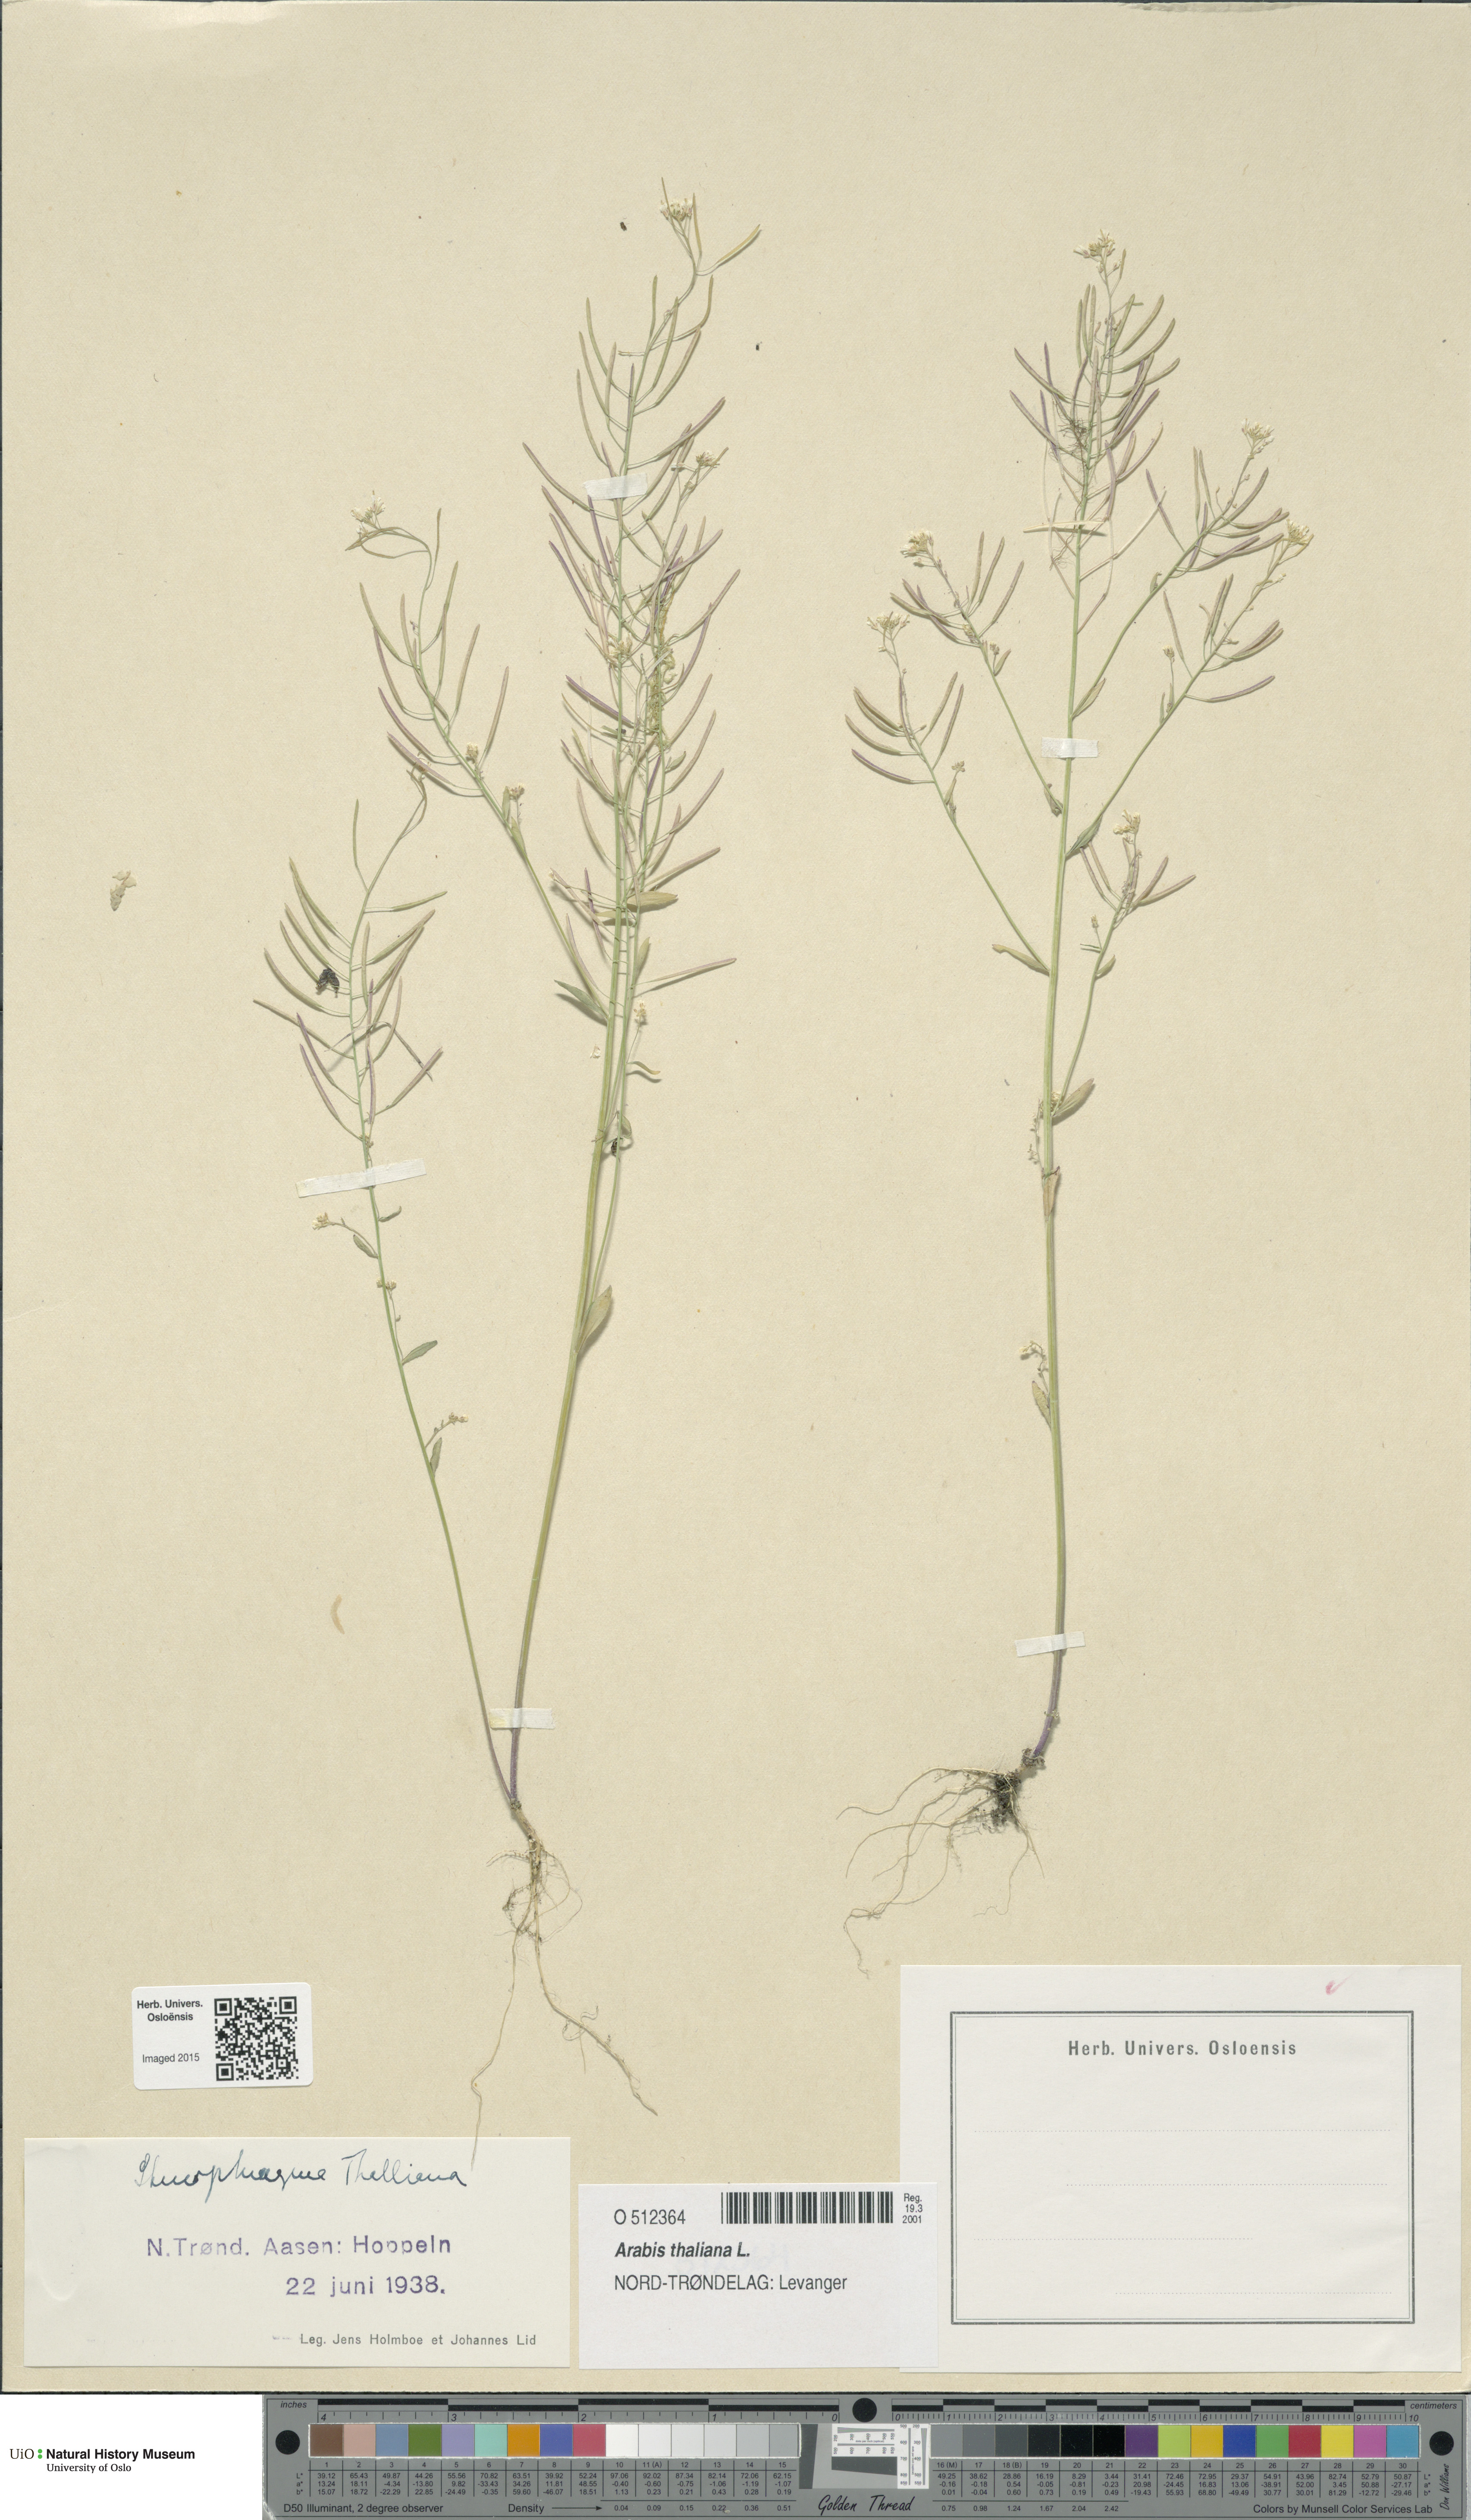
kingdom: Plantae
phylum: Tracheophyta
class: Magnoliopsida
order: Brassicales
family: Brassicaceae
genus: Arabidopsis
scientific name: Arabidopsis thaliana
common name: Thale cress
